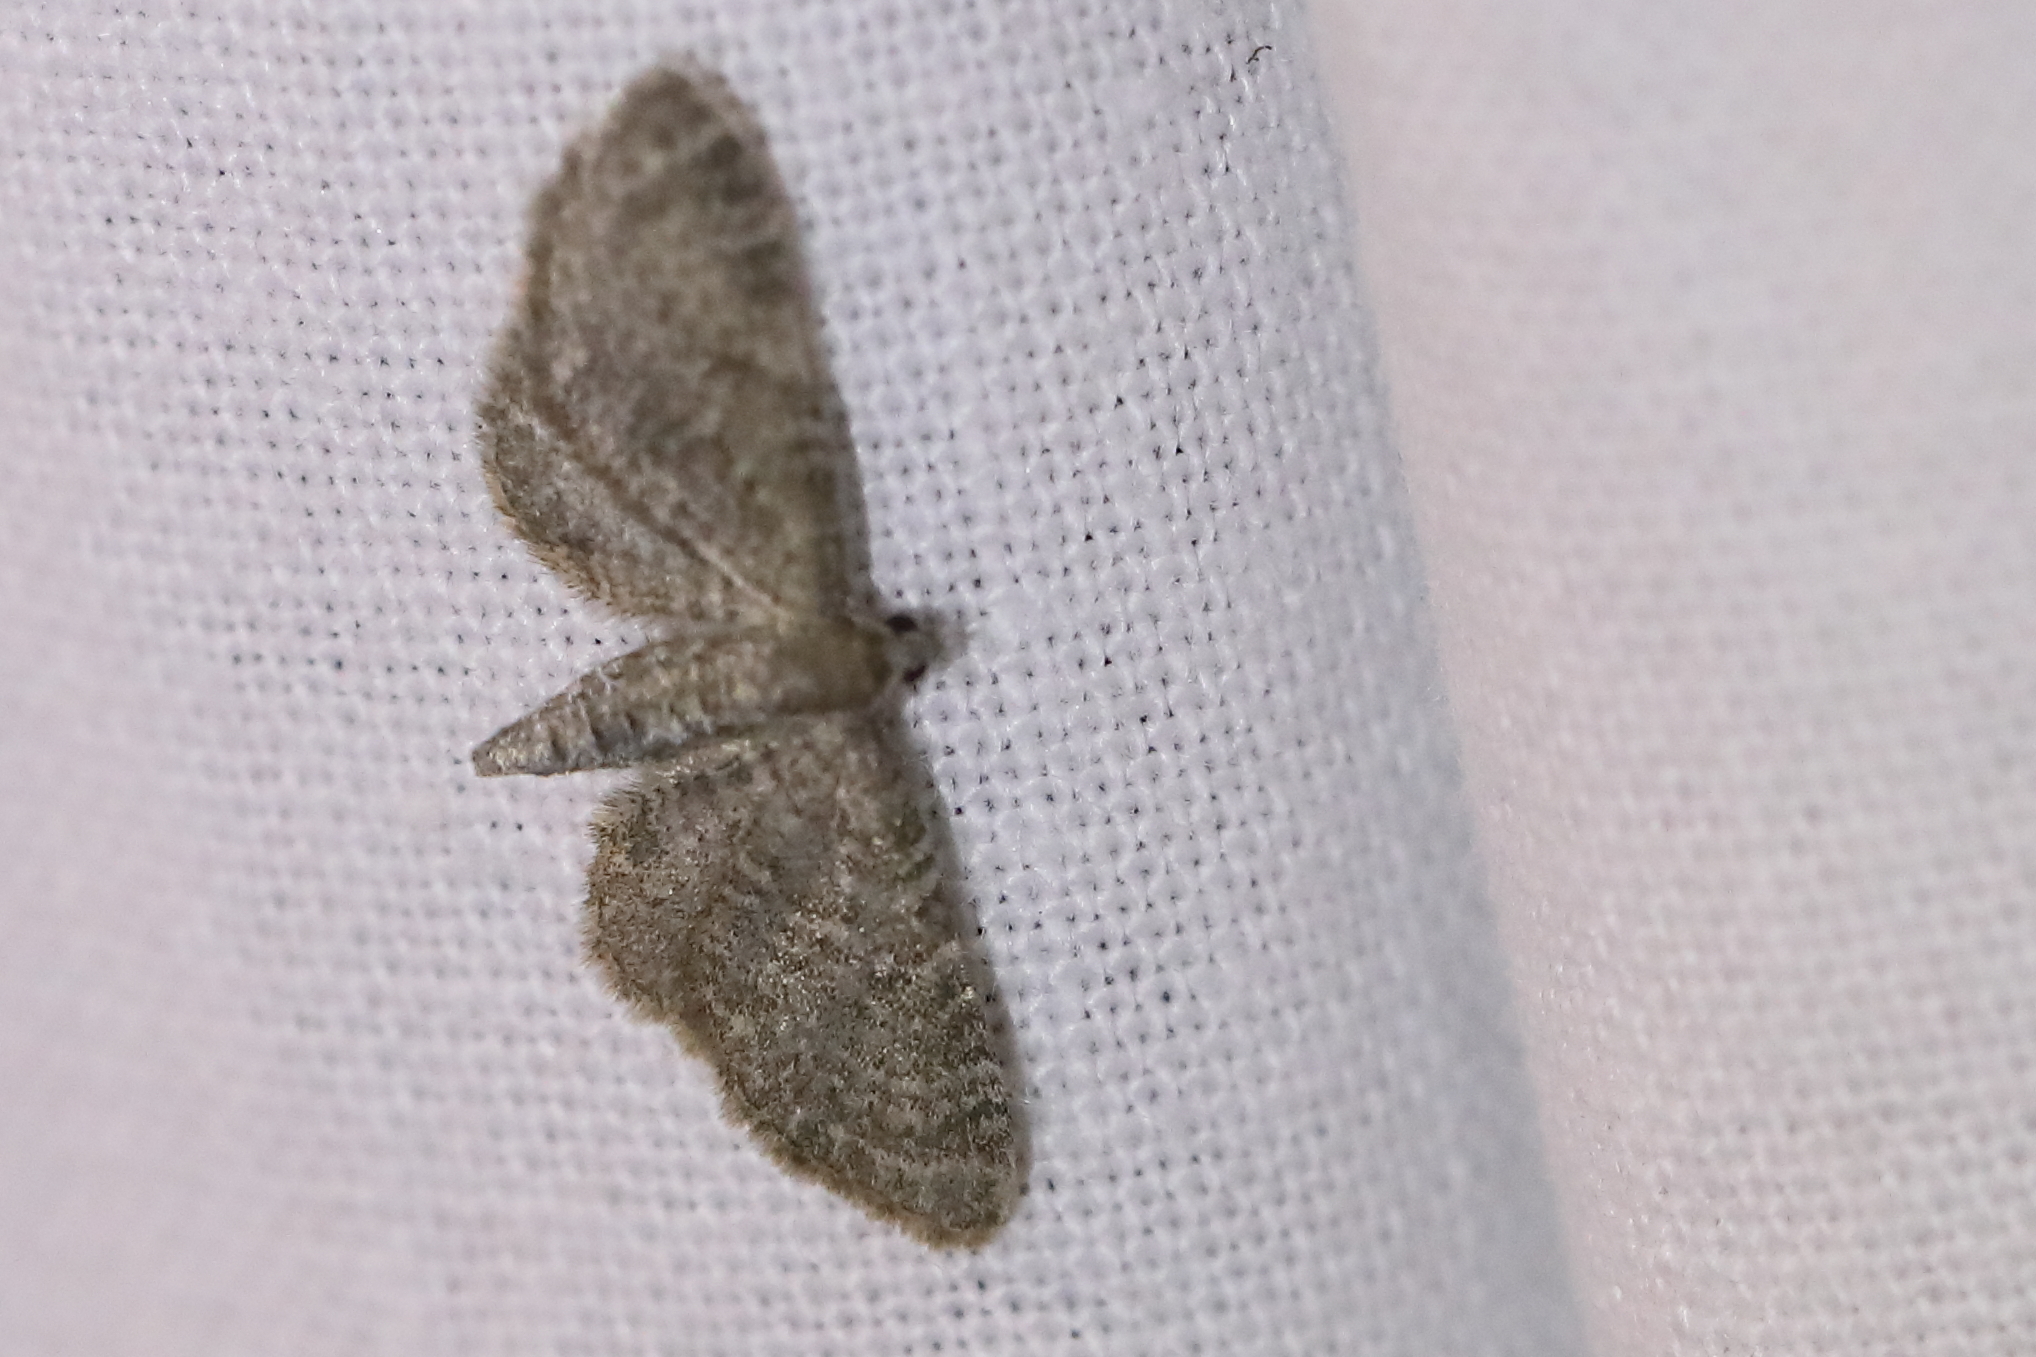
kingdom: Animalia
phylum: Arthropoda
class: Insecta
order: Lepidoptera
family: Geometridae
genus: Eupithecia
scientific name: Eupithecia plumbeolata
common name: Lead-coloured pug
